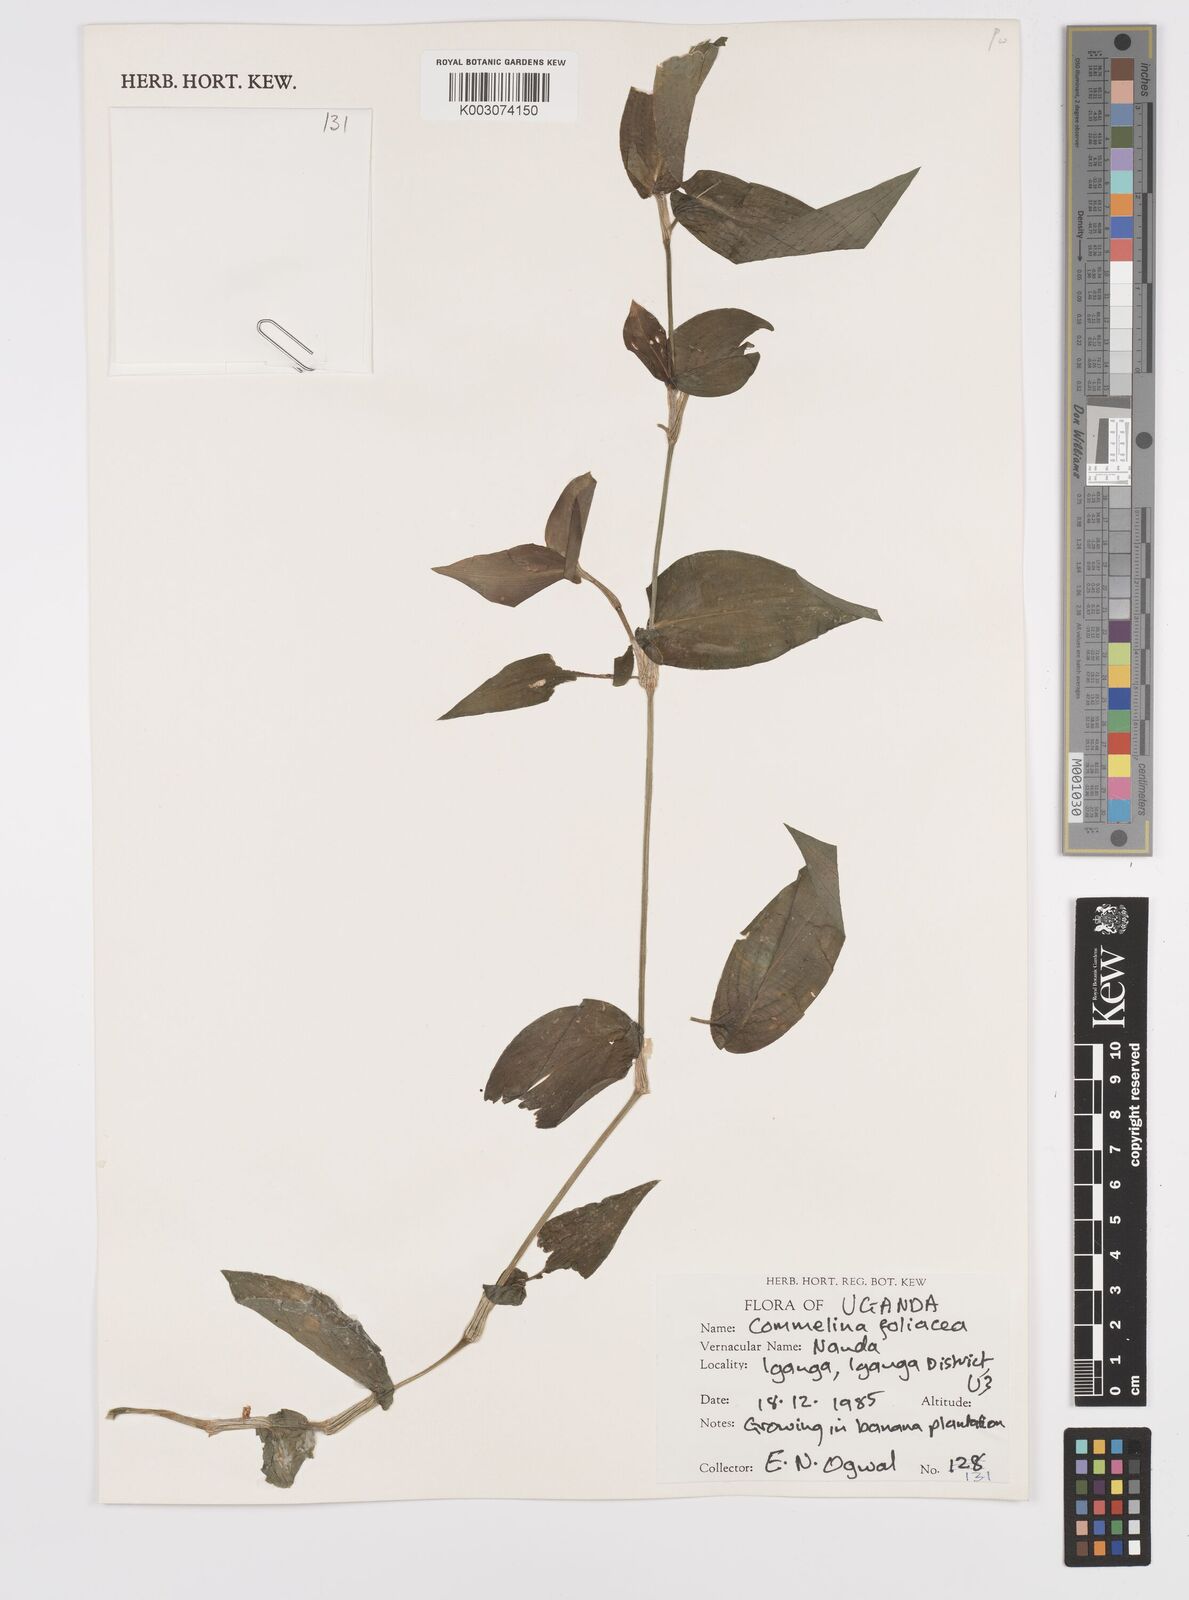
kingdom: Plantae
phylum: Tracheophyta
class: Liliopsida
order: Commelinales
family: Commelinaceae
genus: Commelina
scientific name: Commelina foliacea
